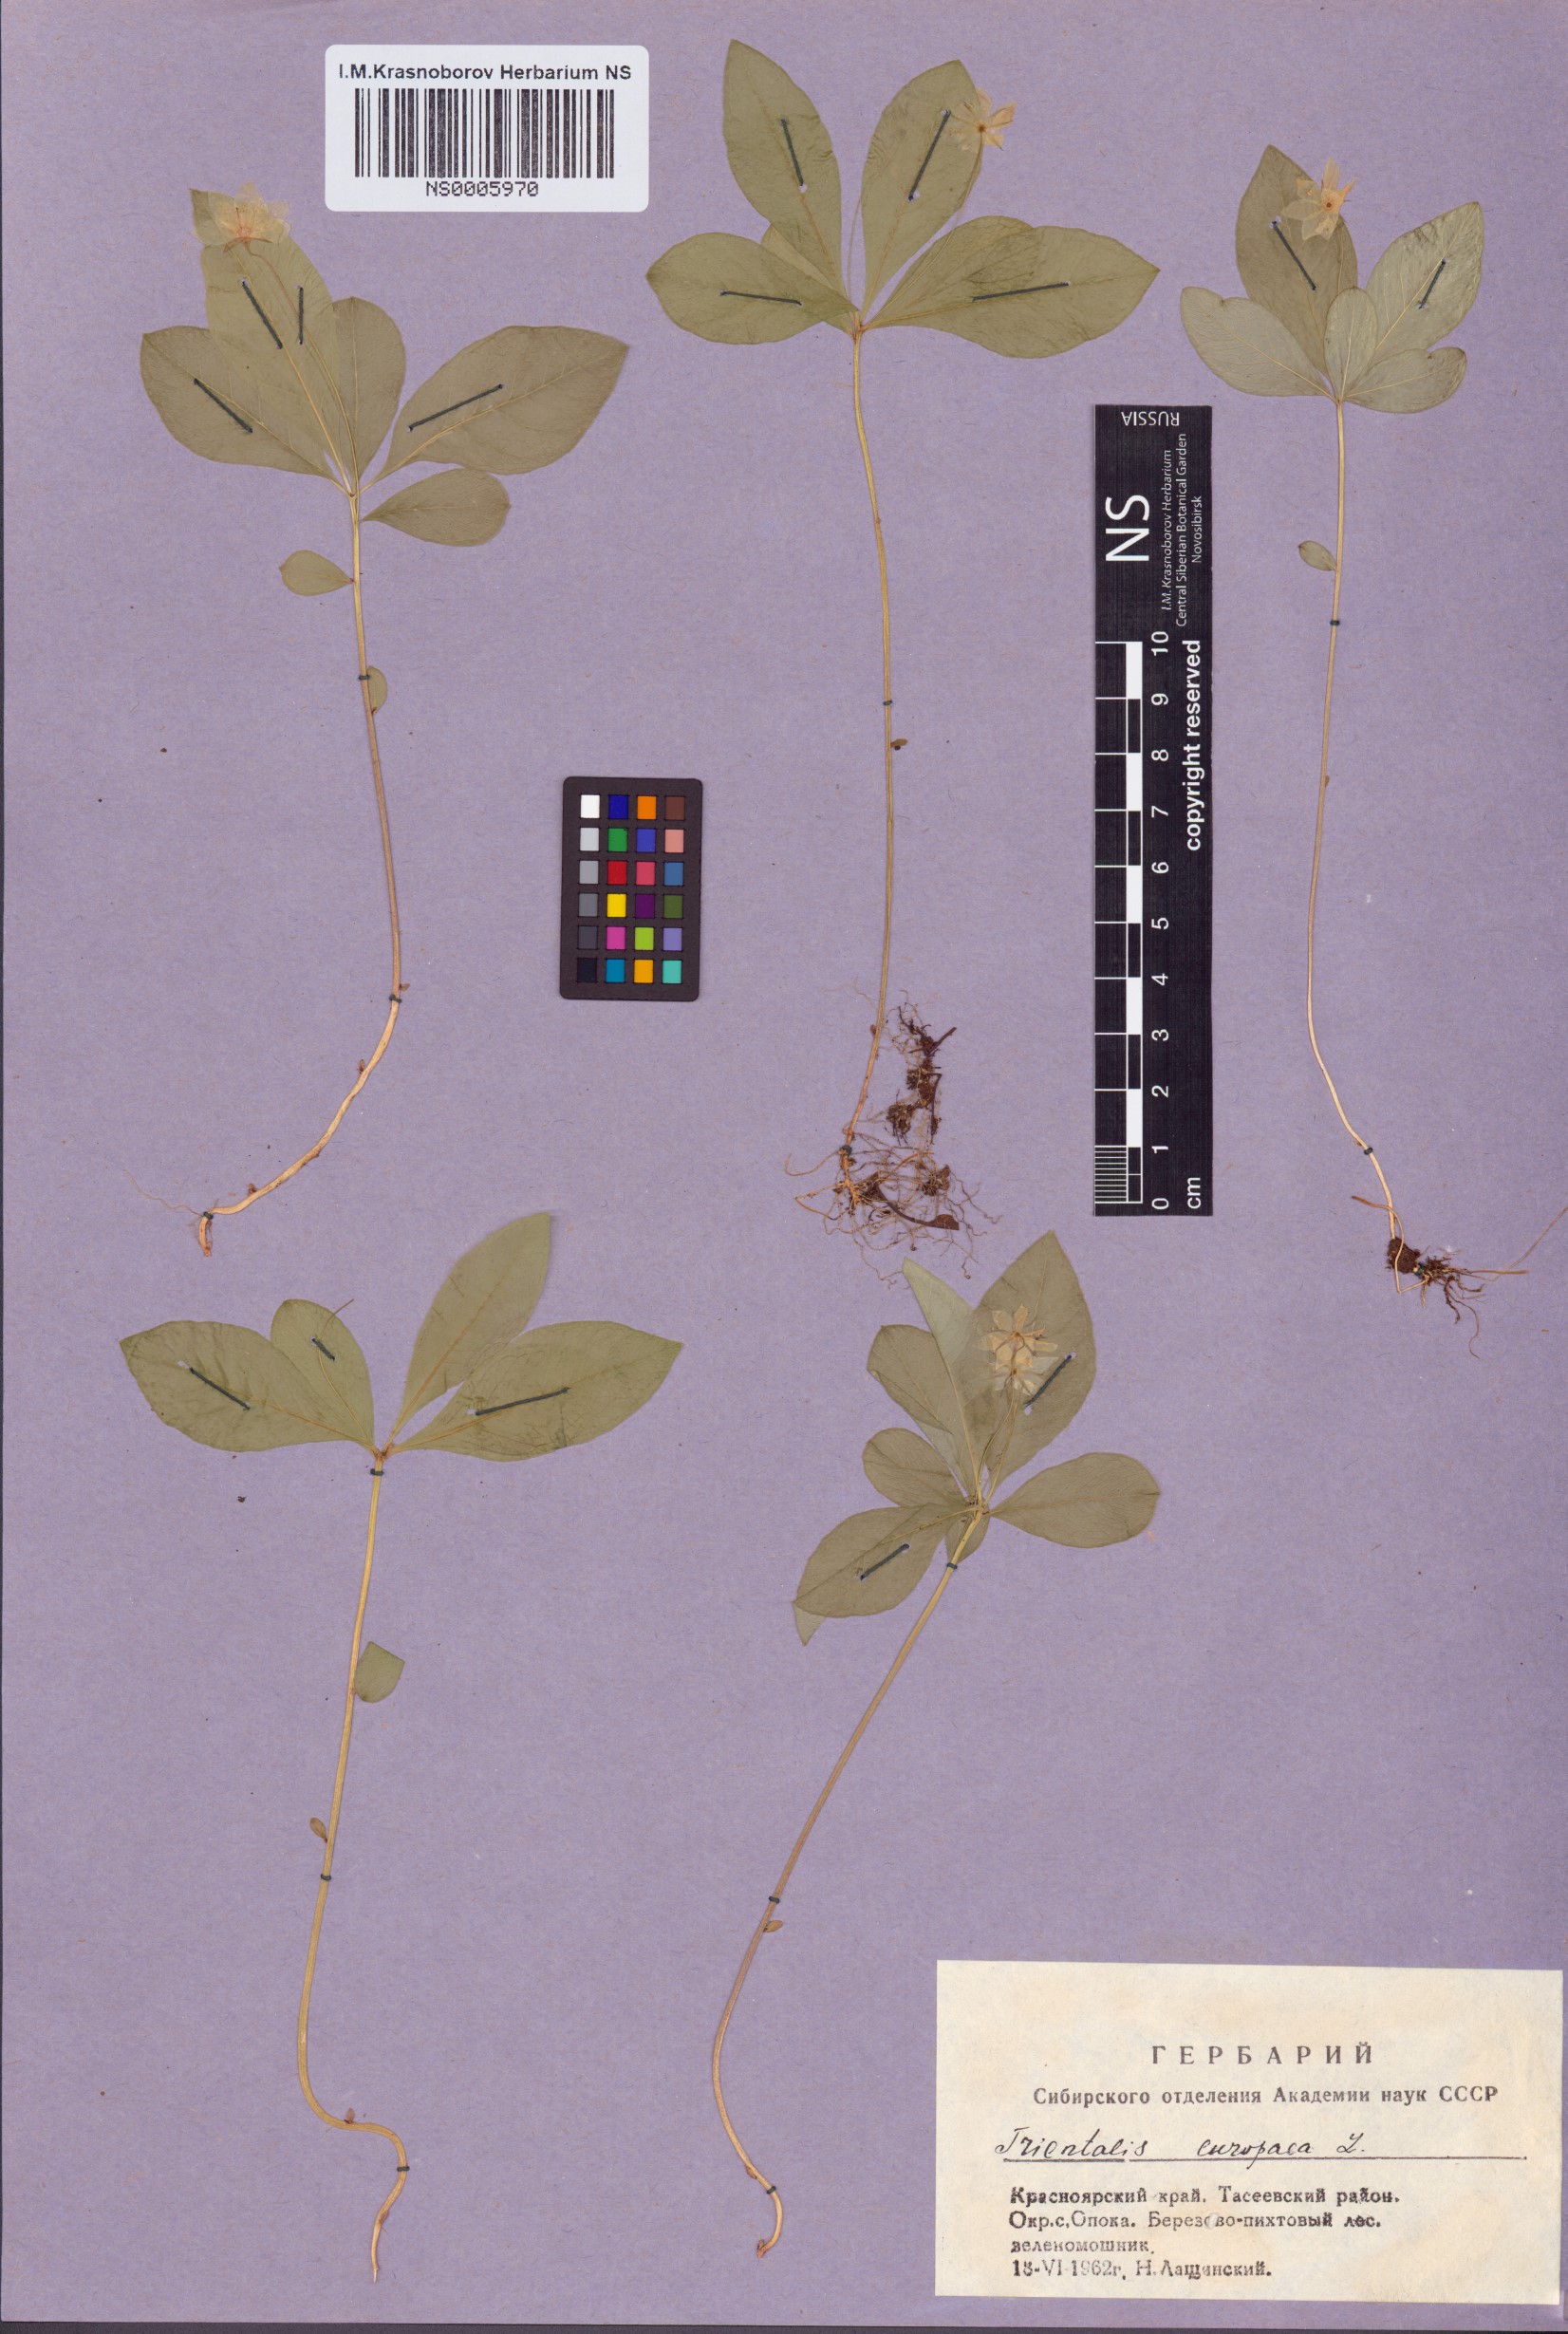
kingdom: Plantae
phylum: Tracheophyta
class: Magnoliopsida
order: Ericales
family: Primulaceae
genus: Lysimachia
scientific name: Lysimachia europaea
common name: Arctic starflower
